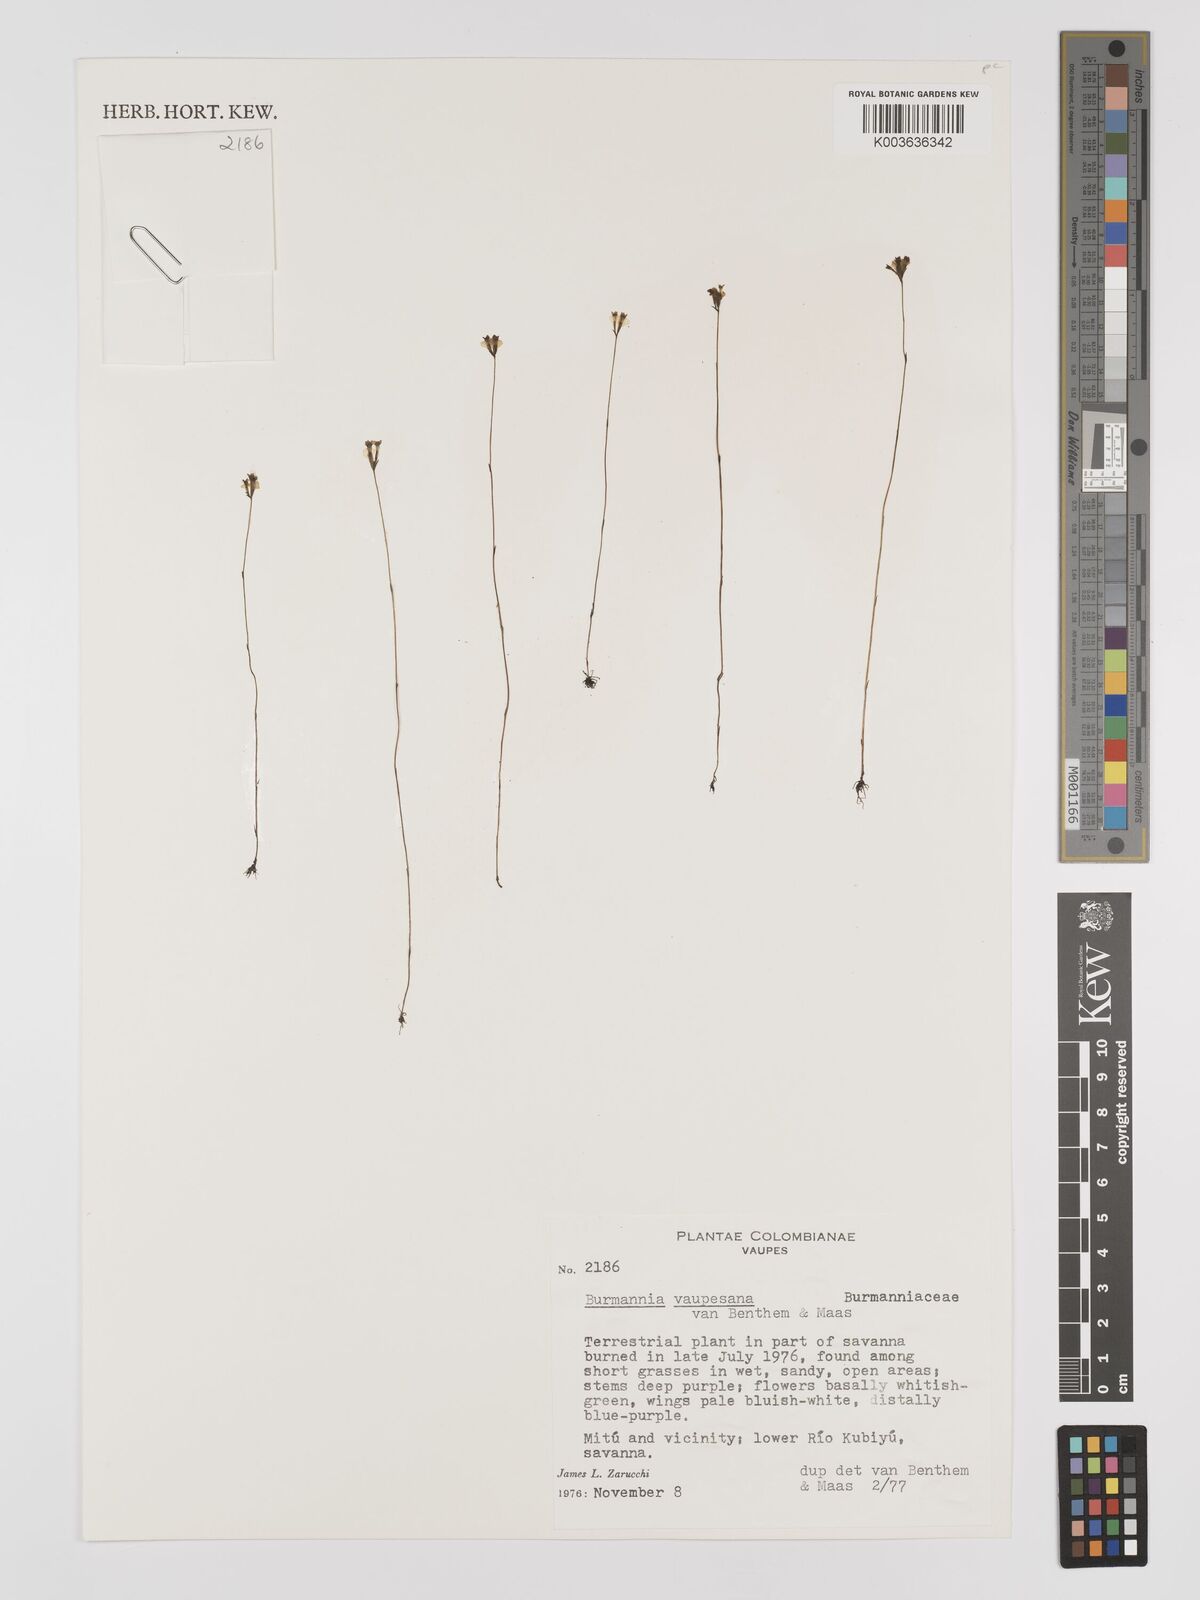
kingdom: Plantae
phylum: Tracheophyta
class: Liliopsida
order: Dioscoreales
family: Burmanniaceae
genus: Burmannia
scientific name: Burmannia vaupesiana
